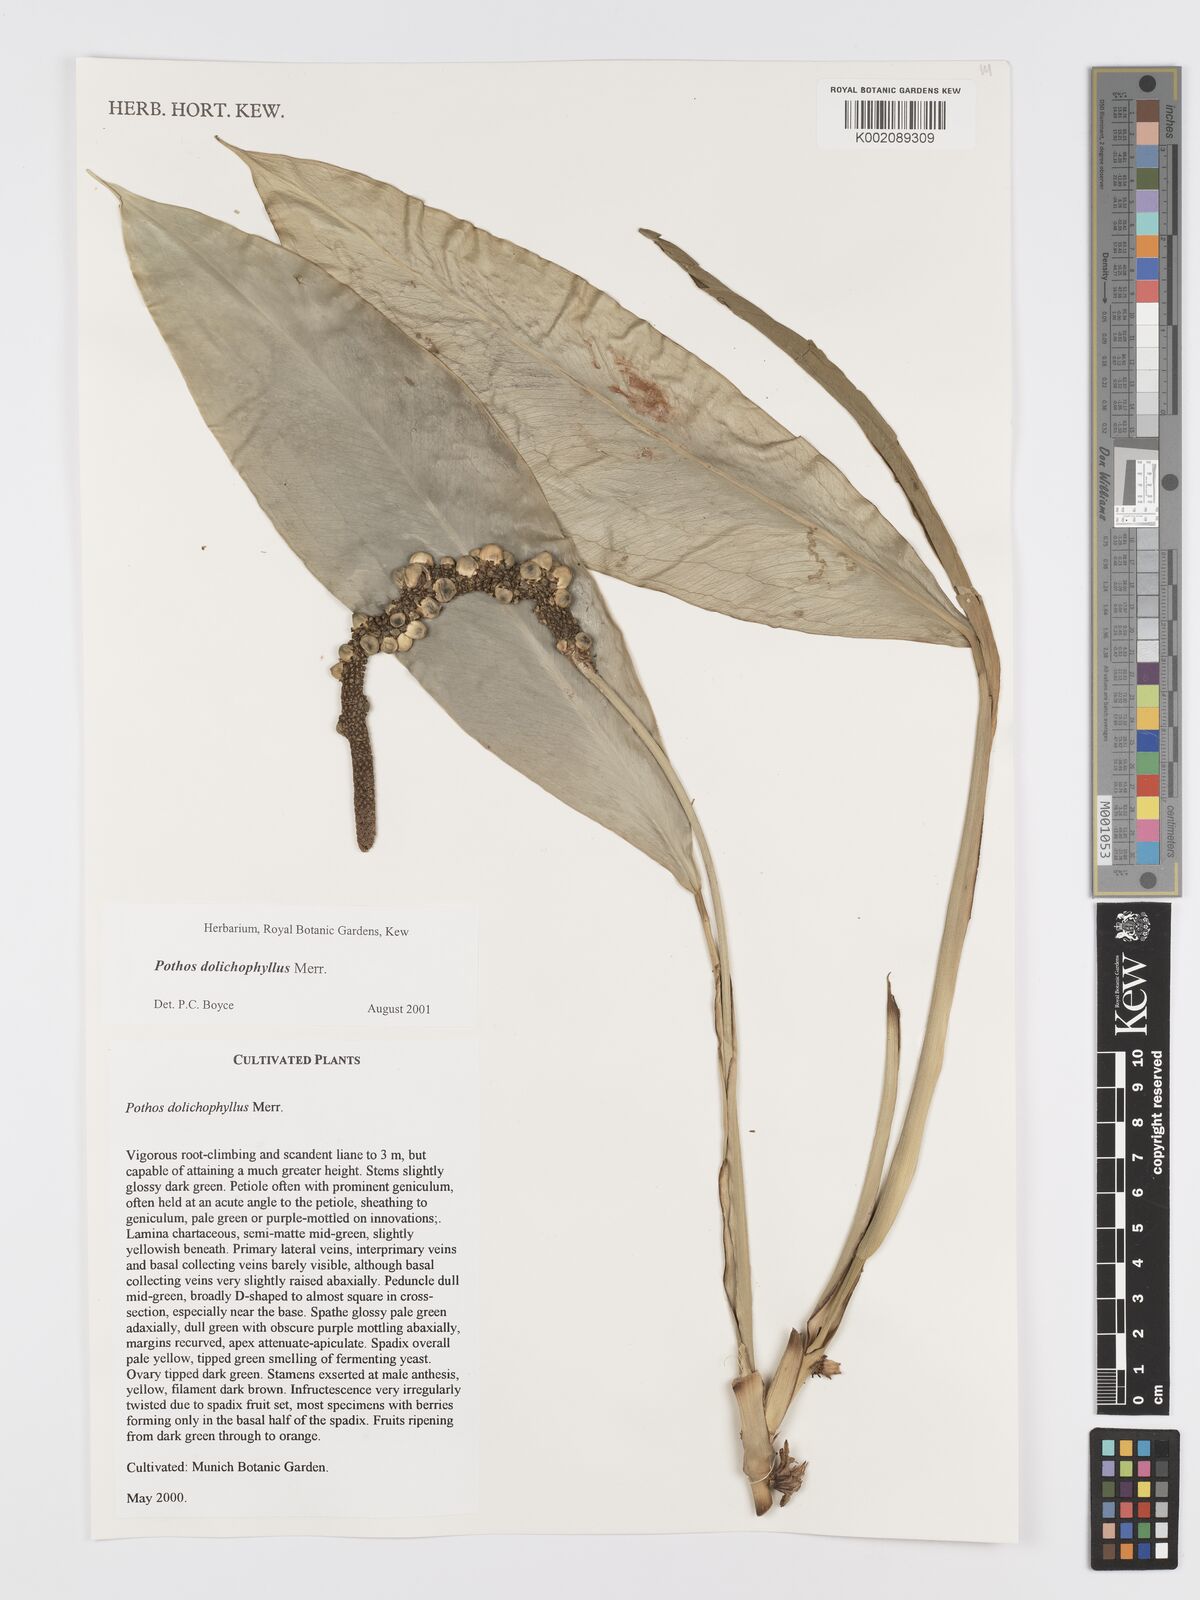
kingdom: Plantae
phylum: Tracheophyta
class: Liliopsida
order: Alismatales
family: Araceae
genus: Pothos
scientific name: Pothos dolichophyllus
